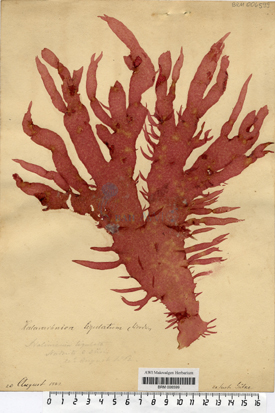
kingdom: Plantae
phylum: Rhodophyta
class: Florideophyceae
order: Gigartinales
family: Furcellariaceae
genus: Halarachnion
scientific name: Halarachnion ligulatum
